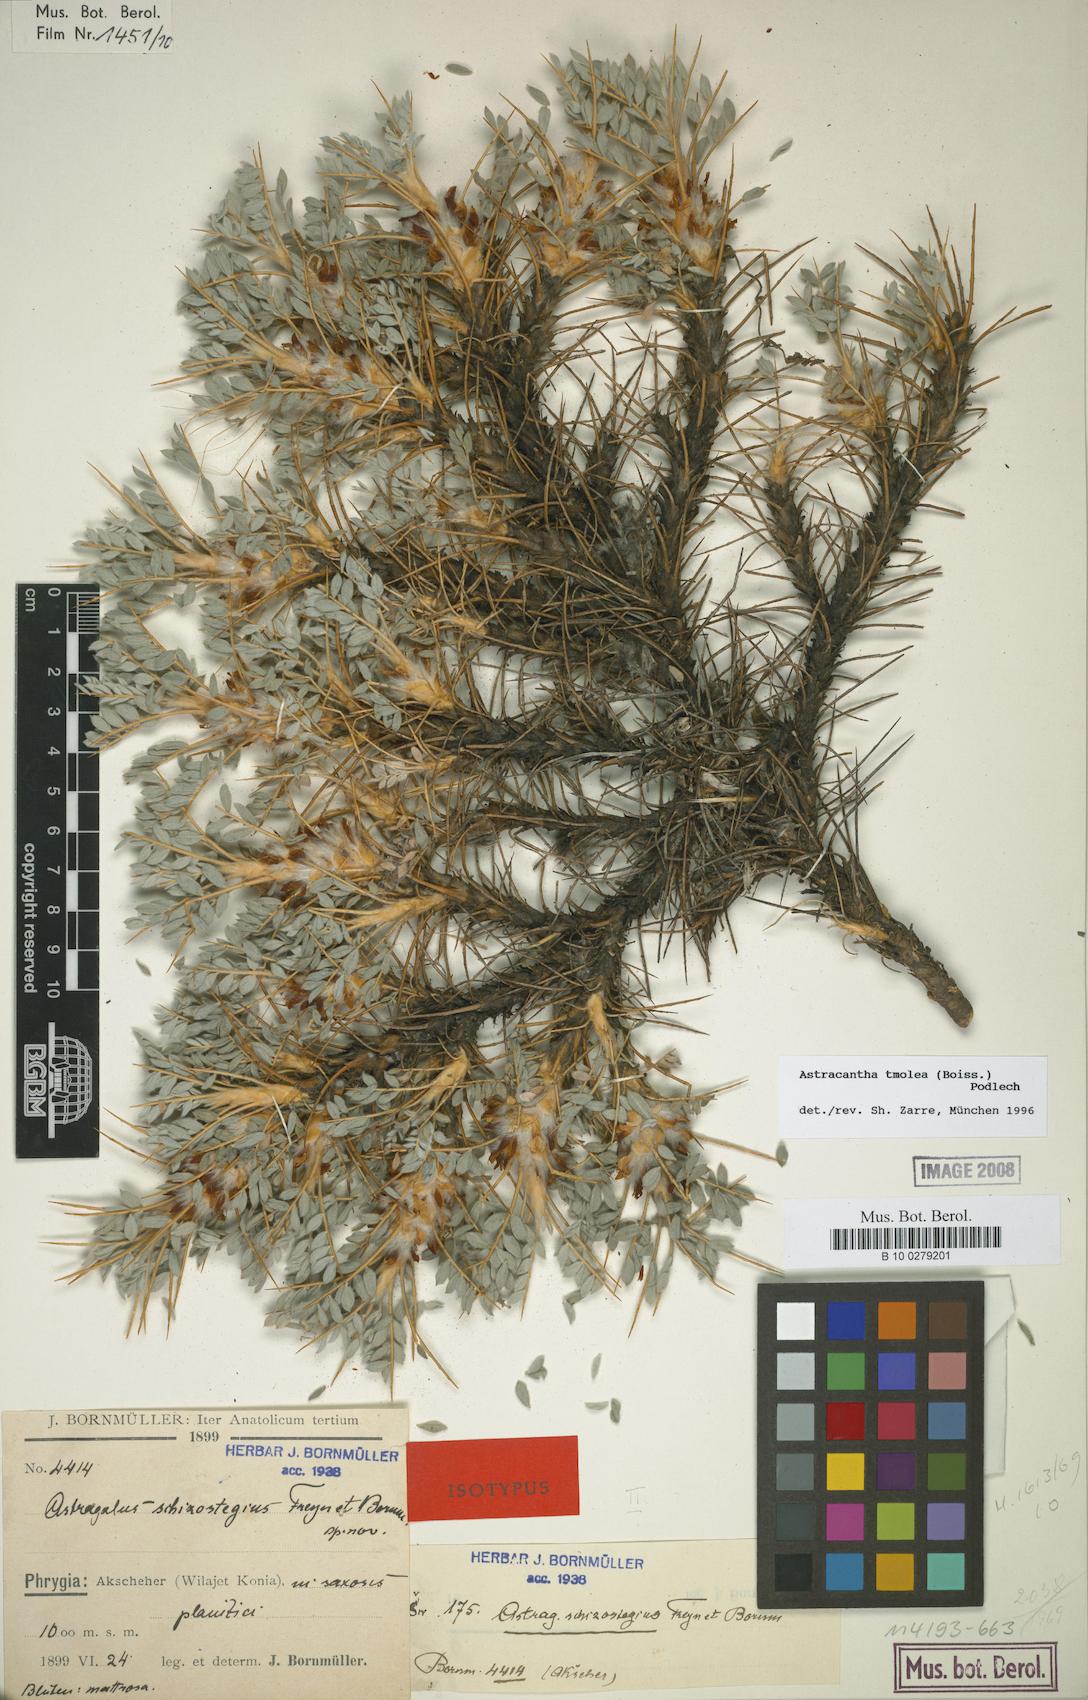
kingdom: Plantae
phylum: Tracheophyta
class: Magnoliopsida
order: Fabales
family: Fabaceae
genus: Astragalus
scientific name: Astragalus tmoleus
